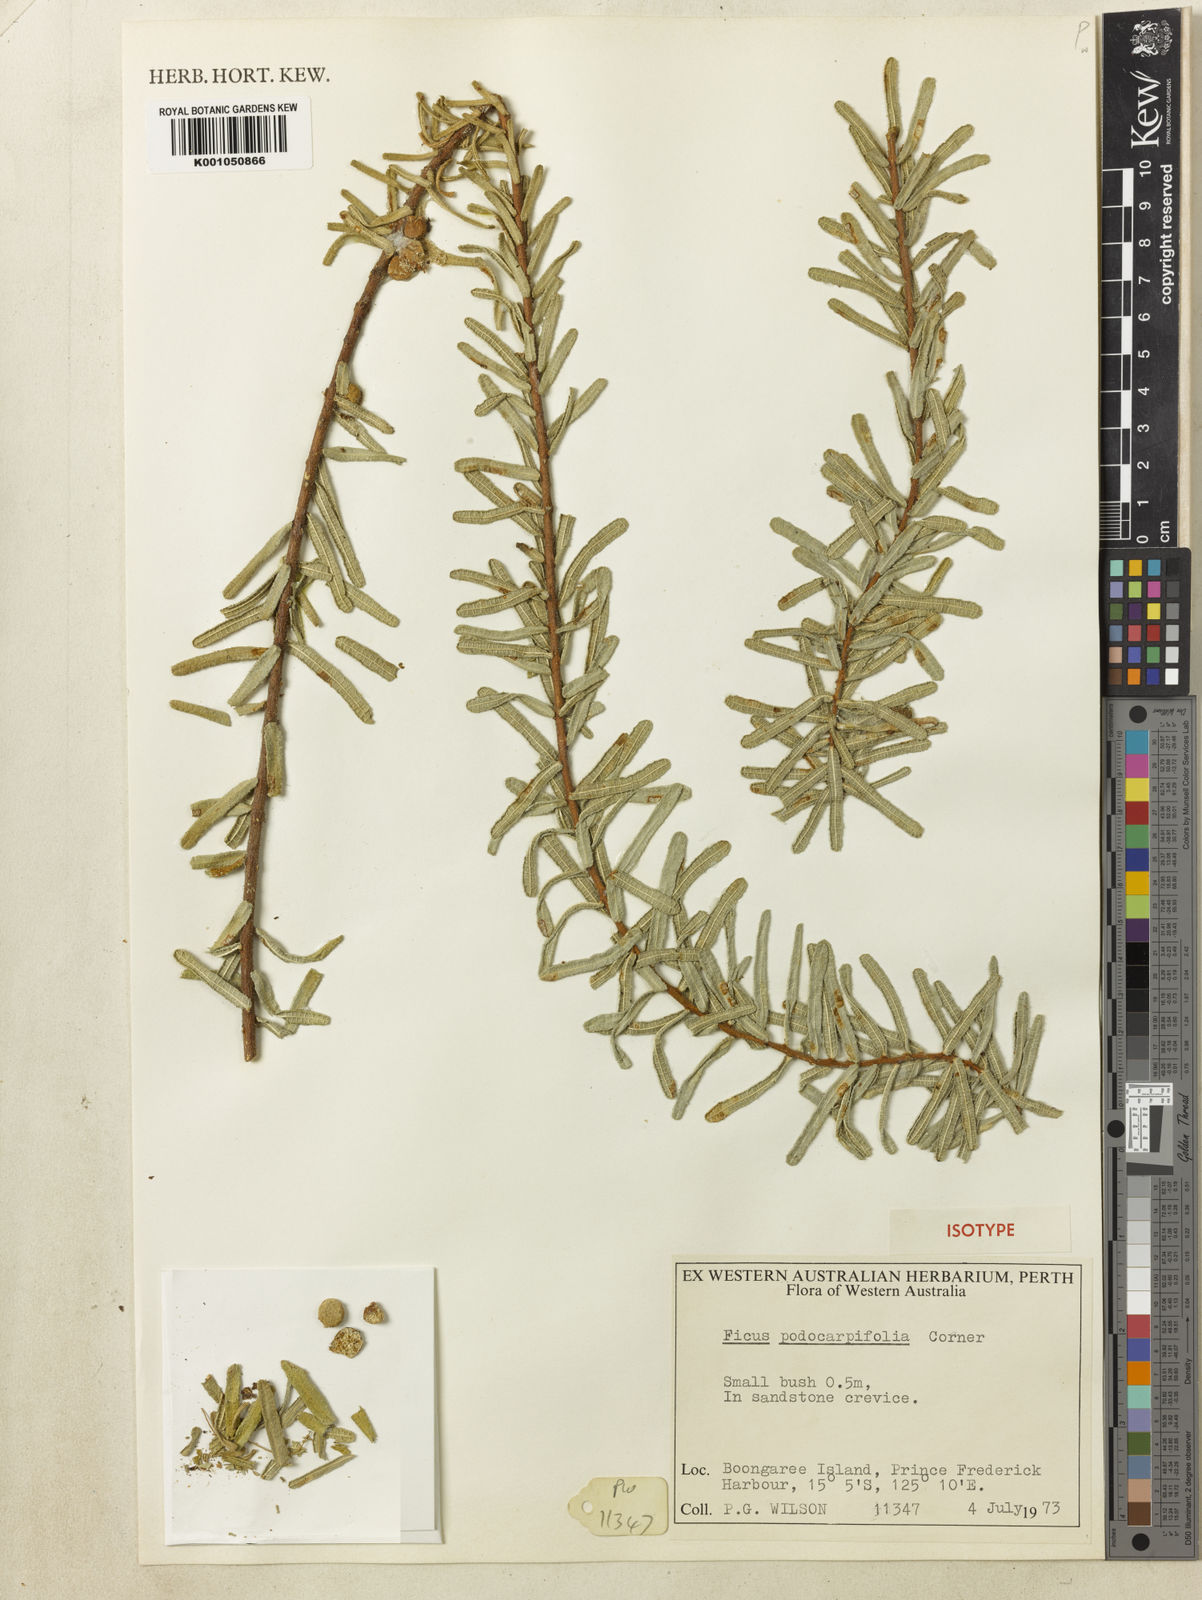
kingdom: Plantae
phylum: Tracheophyta
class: Magnoliopsida
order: Rosales
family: Moraceae
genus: Ficus
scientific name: Ficus podocarpifolia
